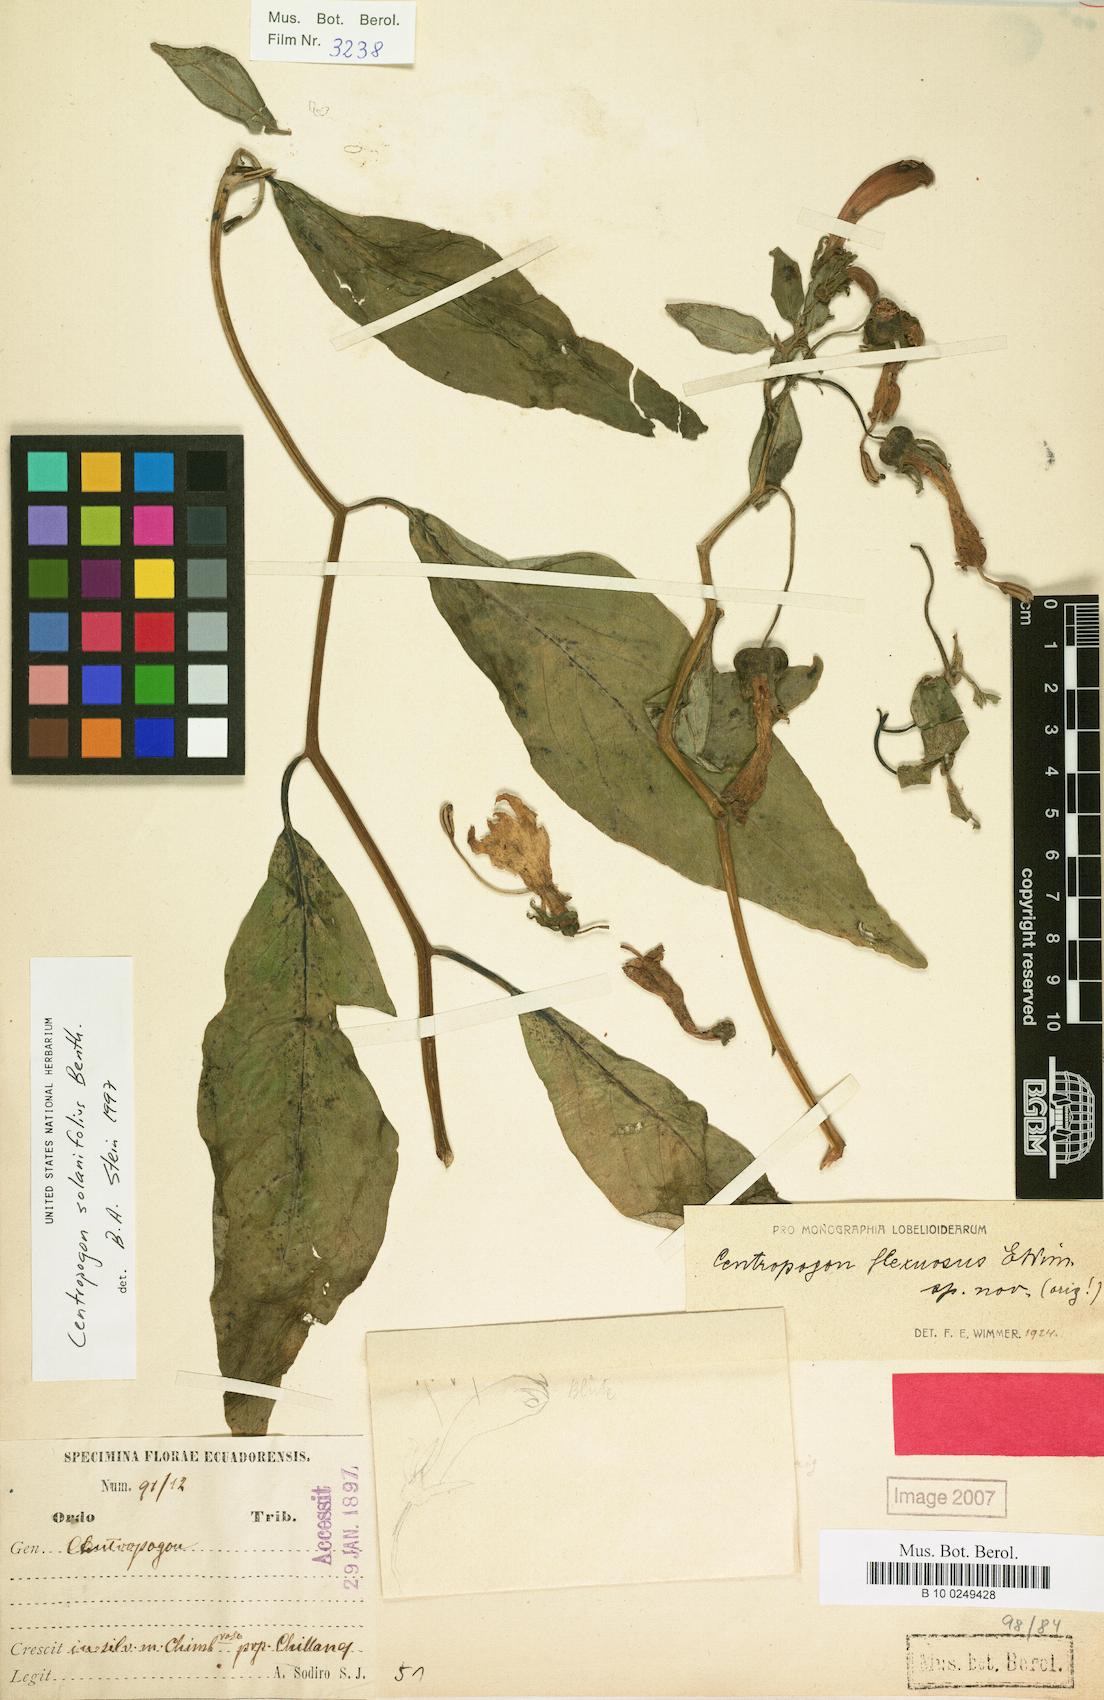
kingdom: Plantae
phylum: Tracheophyta
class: Magnoliopsida
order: Asterales
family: Campanulaceae
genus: Centropogon
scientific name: Centropogon solanifolius
